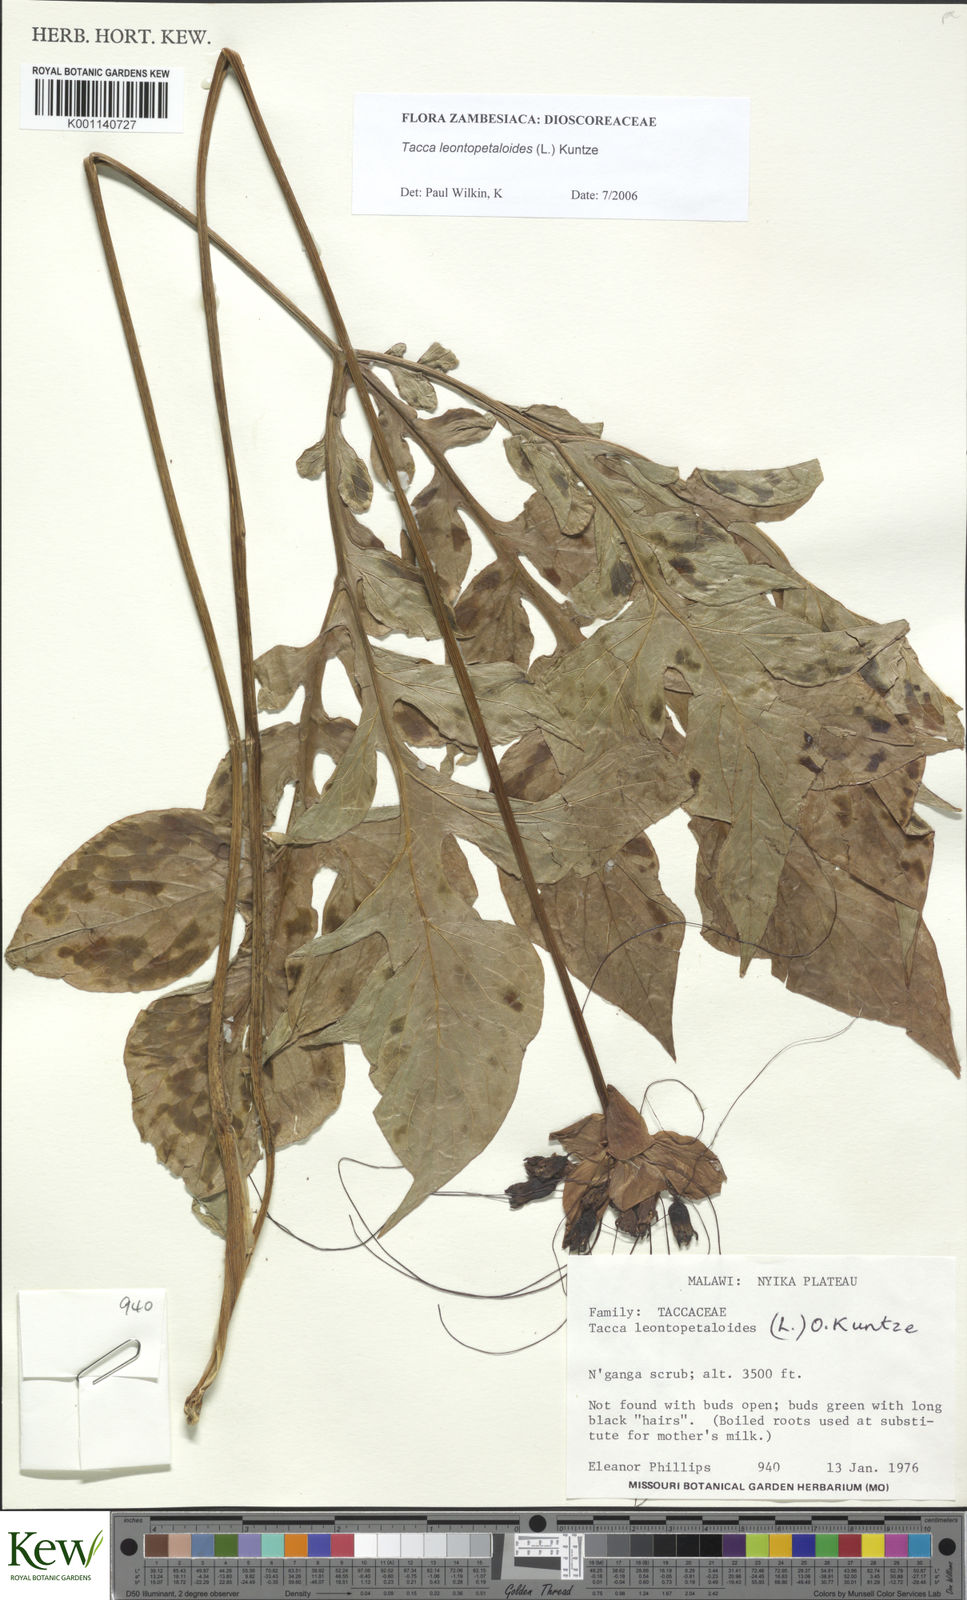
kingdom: Plantae
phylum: Tracheophyta
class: Liliopsida
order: Dioscoreales
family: Dioscoreaceae
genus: Tacca
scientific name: Tacca leontopetaloides
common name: Arrowroot
